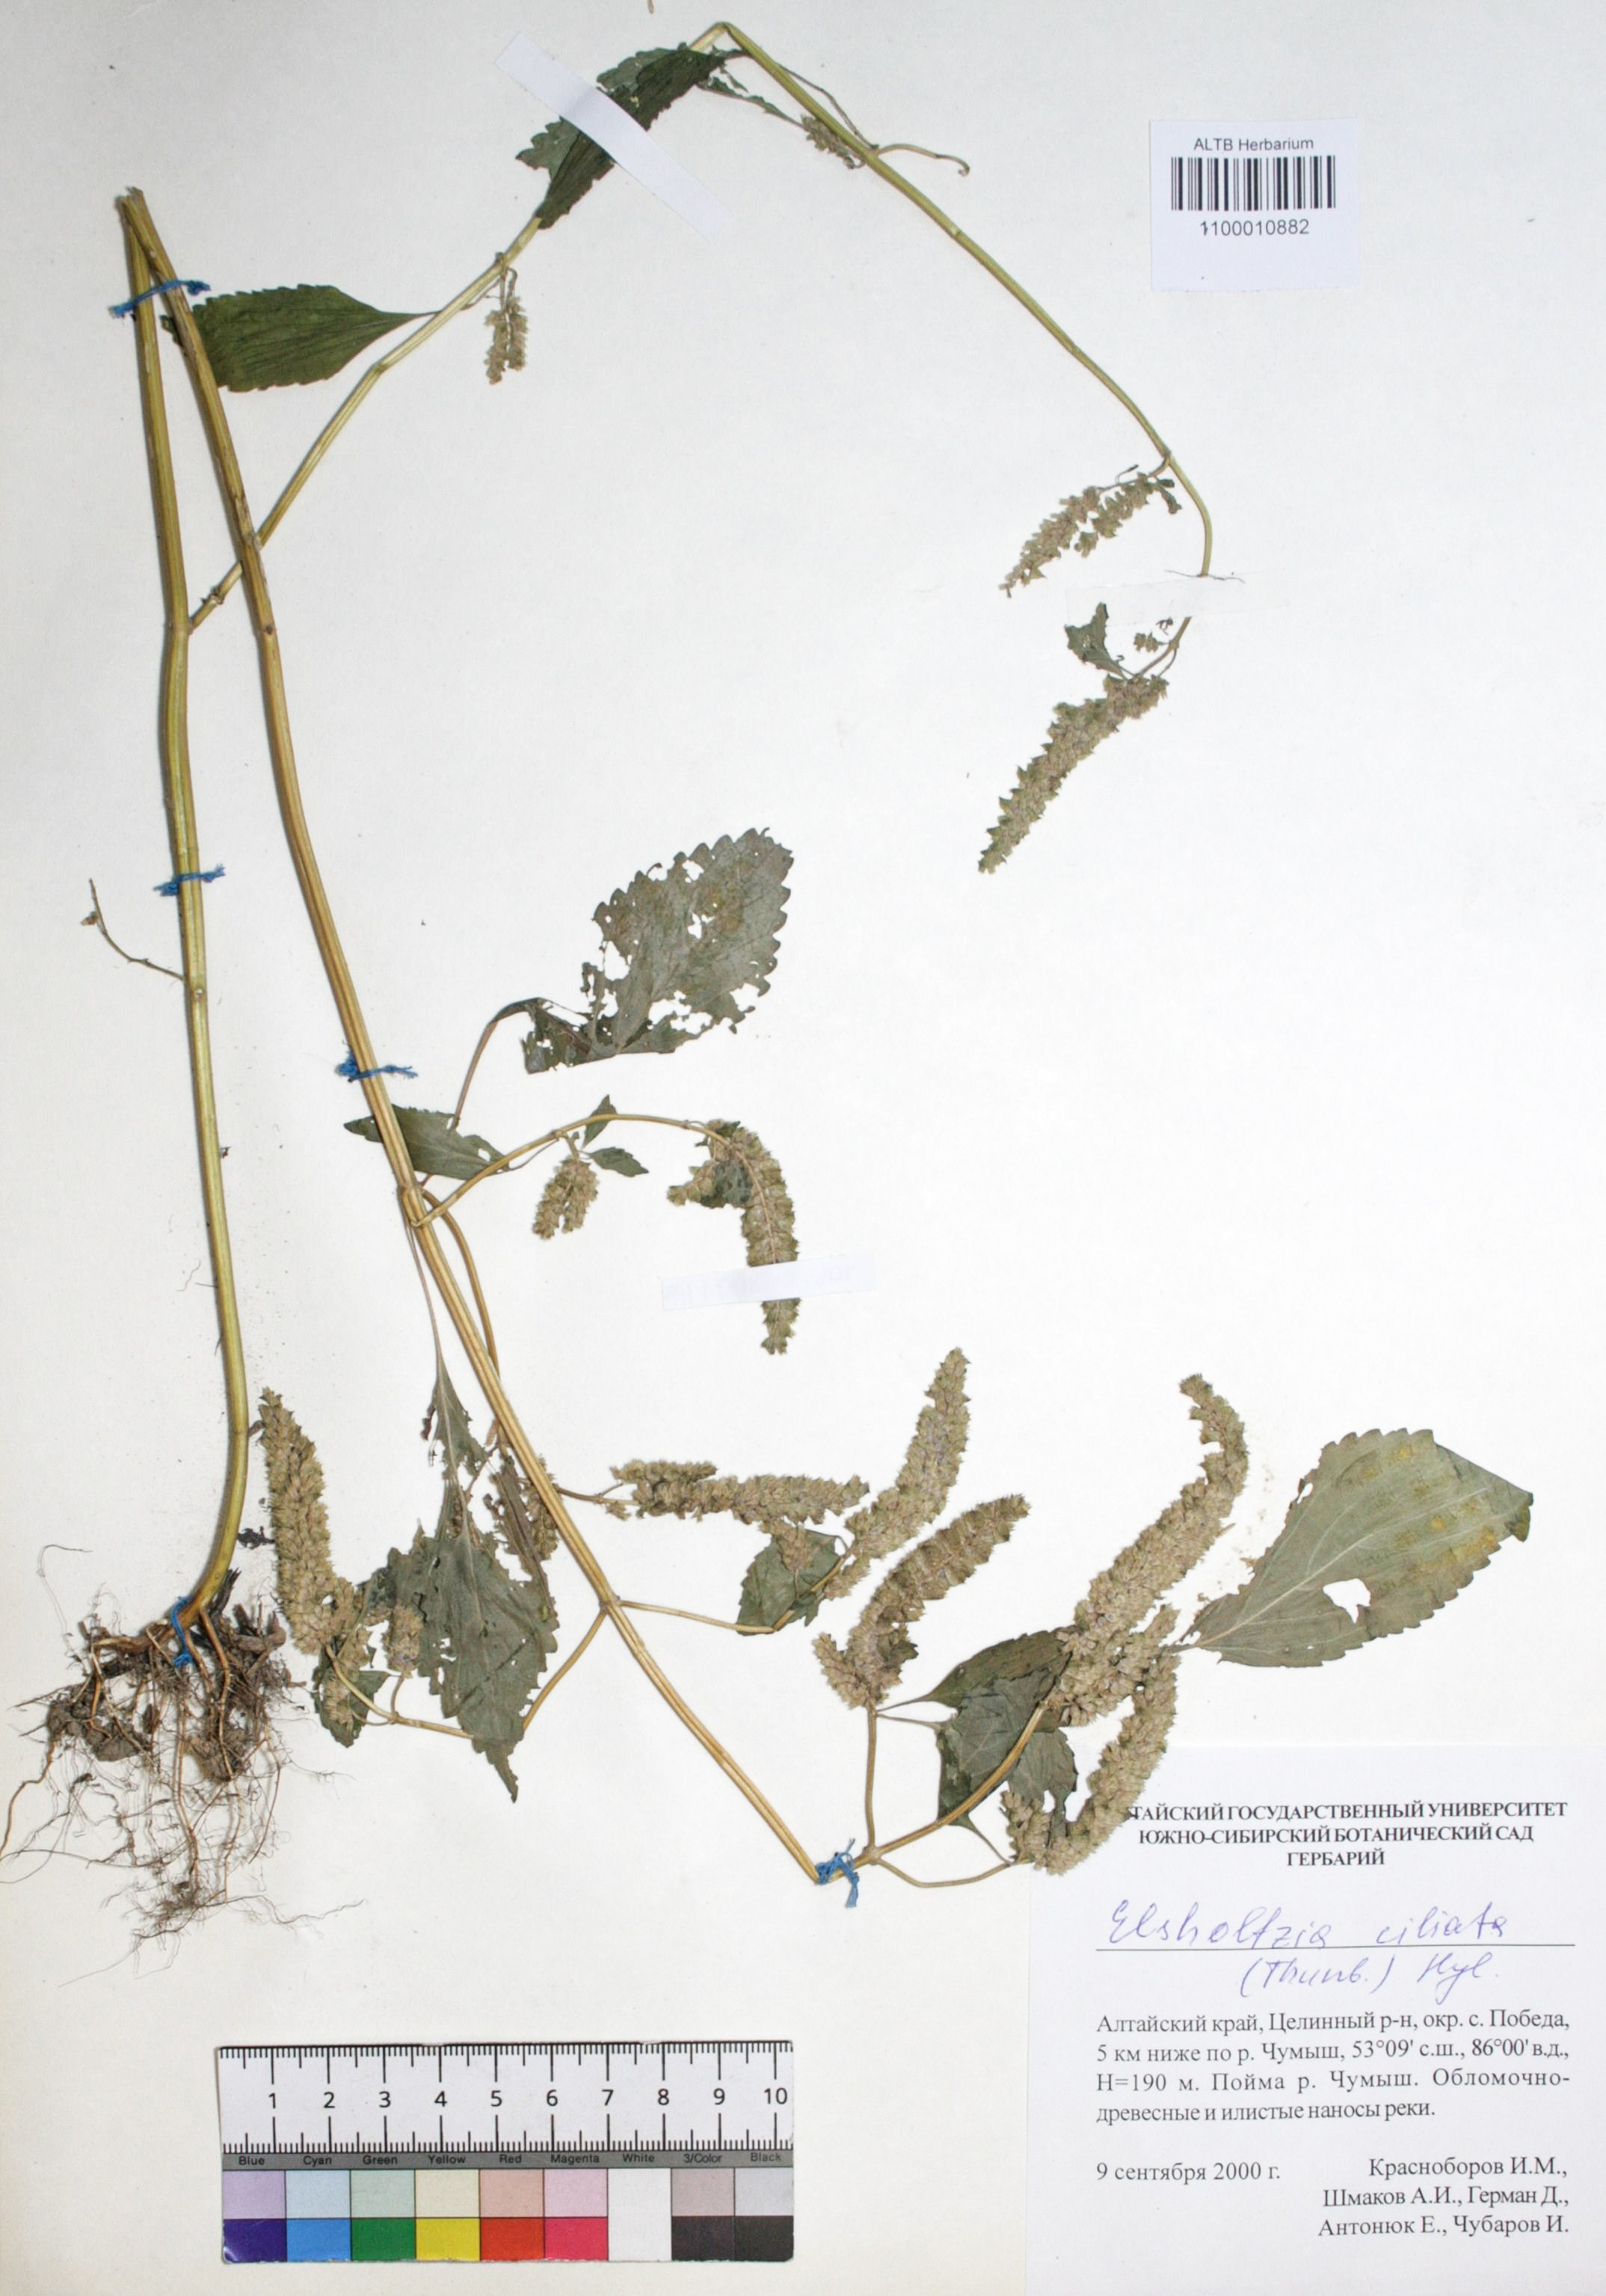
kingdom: Plantae
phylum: Tracheophyta
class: Magnoliopsida
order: Lamiales
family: Lamiaceae
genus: Elsholtzia
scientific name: Elsholtzia ciliata
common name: Ciliate elsholtzia
